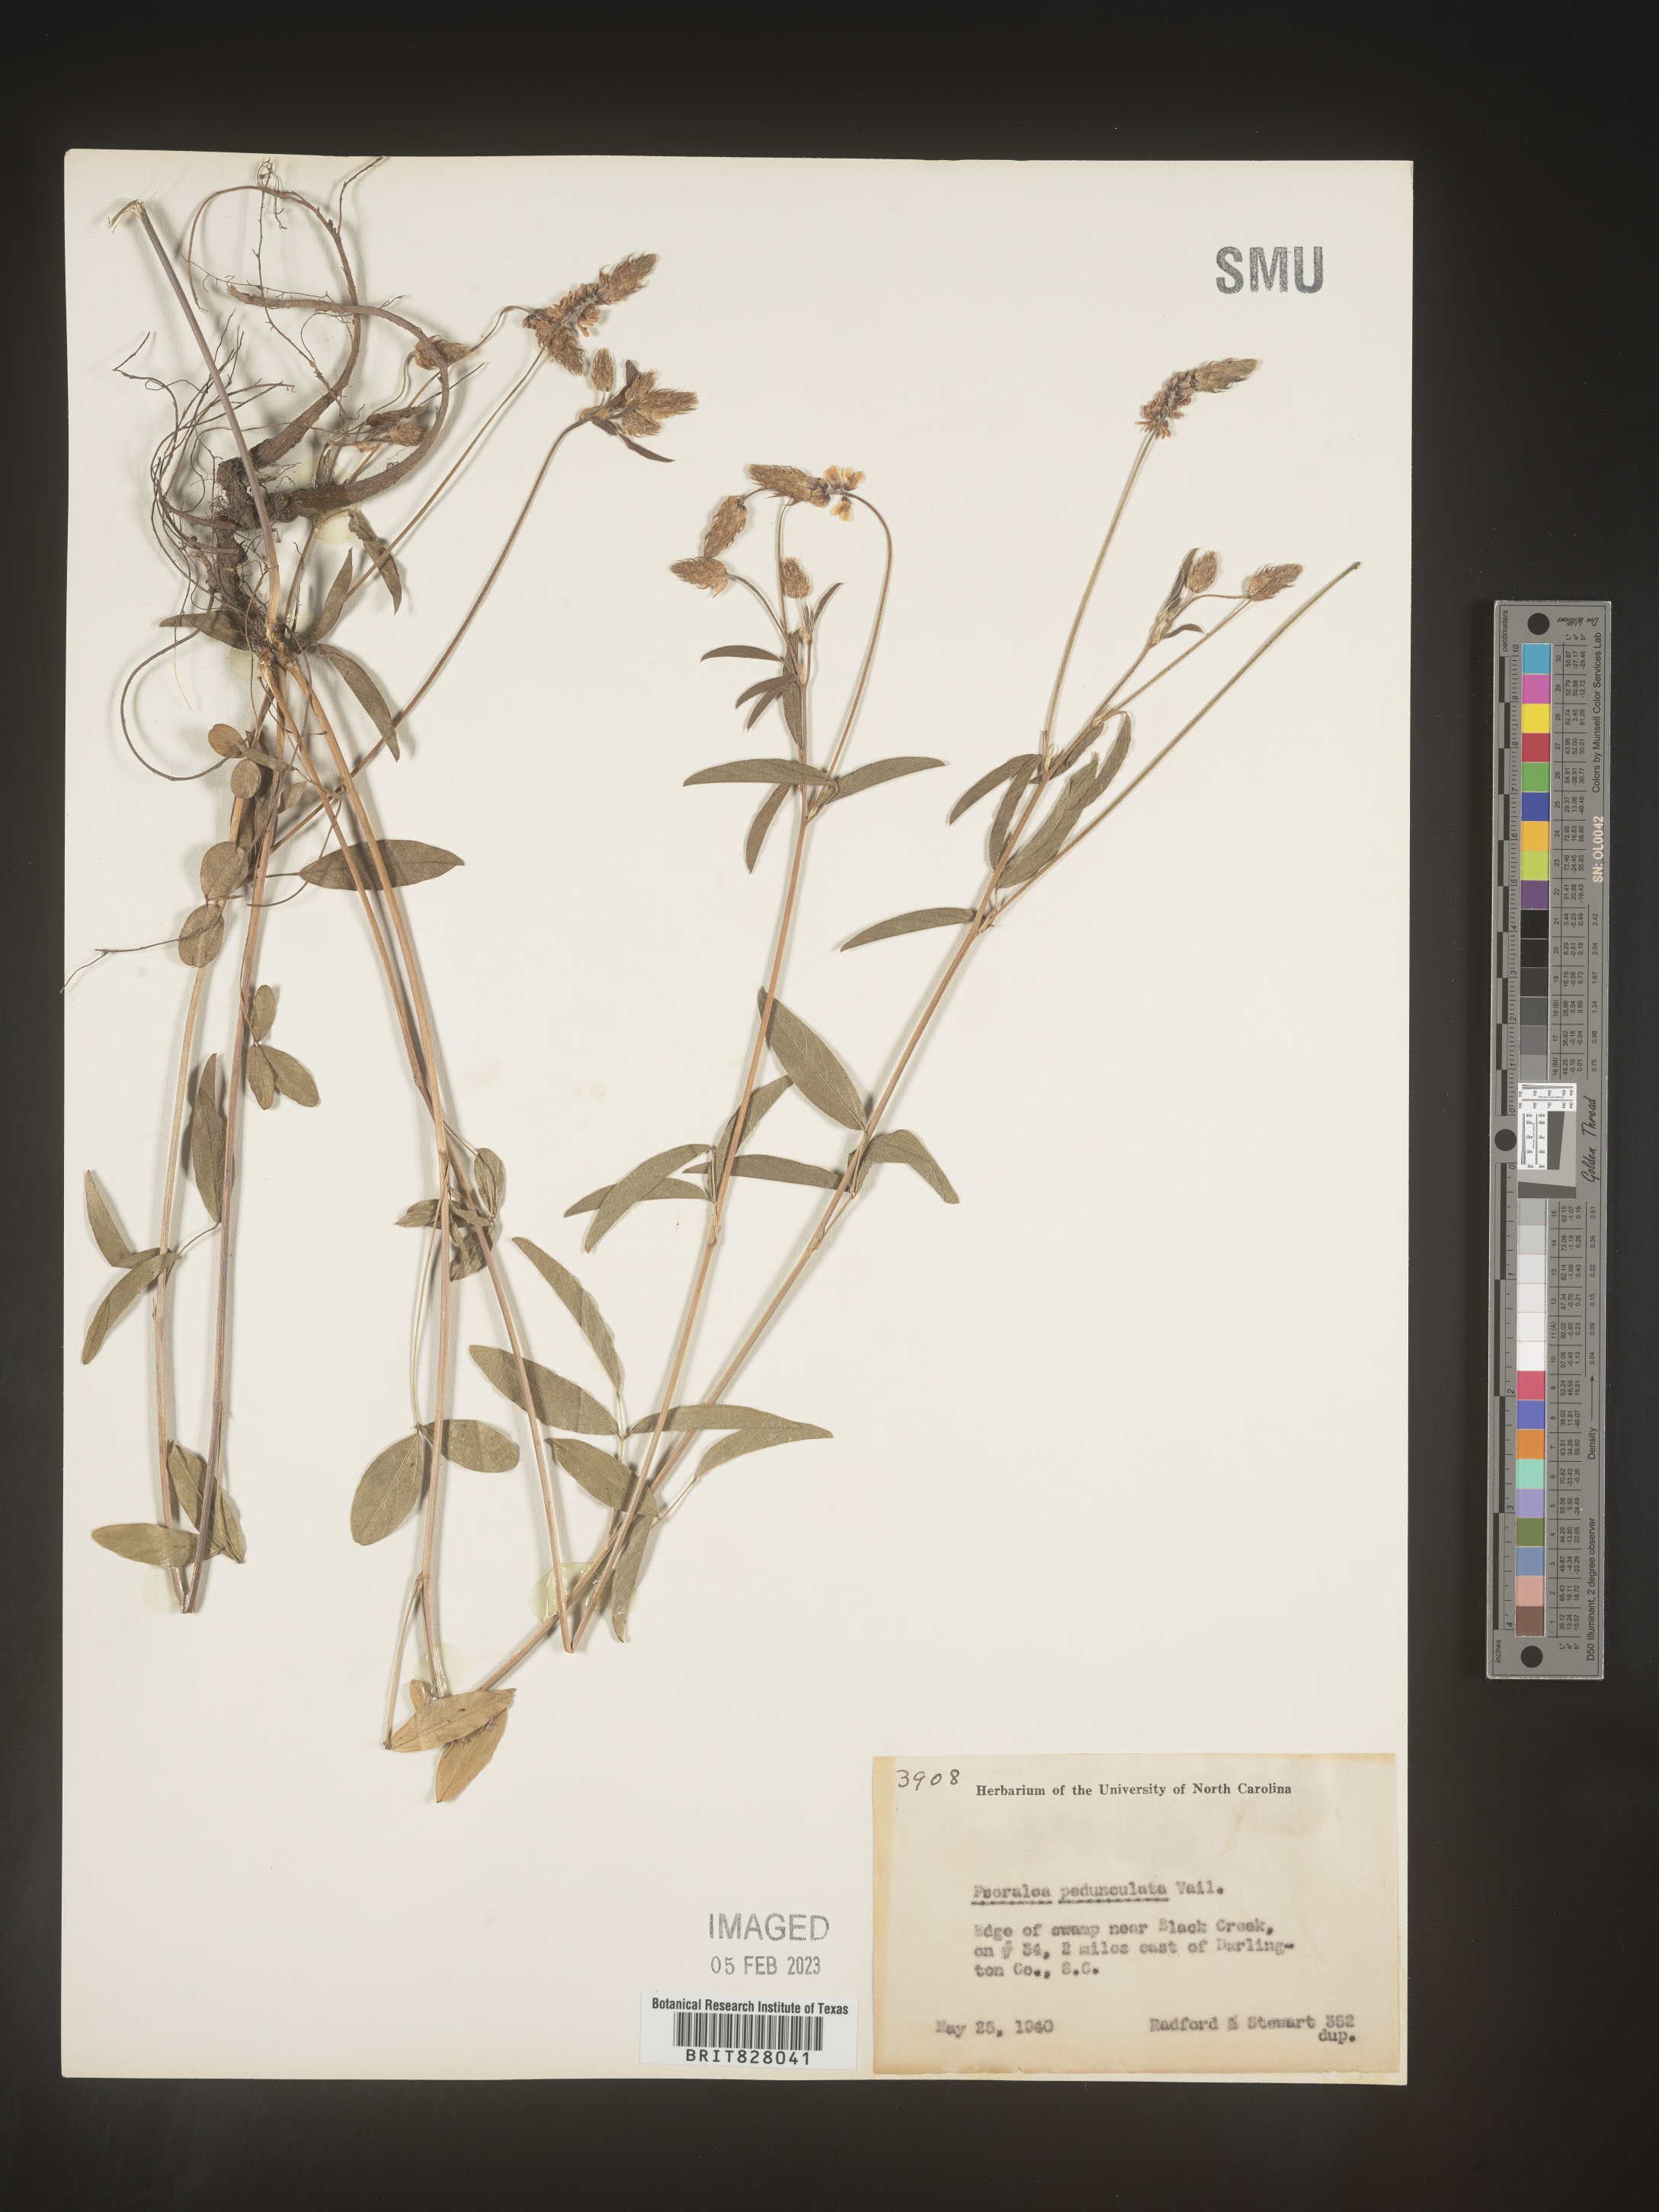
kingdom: Plantae
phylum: Tracheophyta
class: Magnoliopsida
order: Fabales
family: Fabaceae
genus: Orbexilum
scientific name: Orbexilum pedunculatum
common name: Sampson's snakeroot
